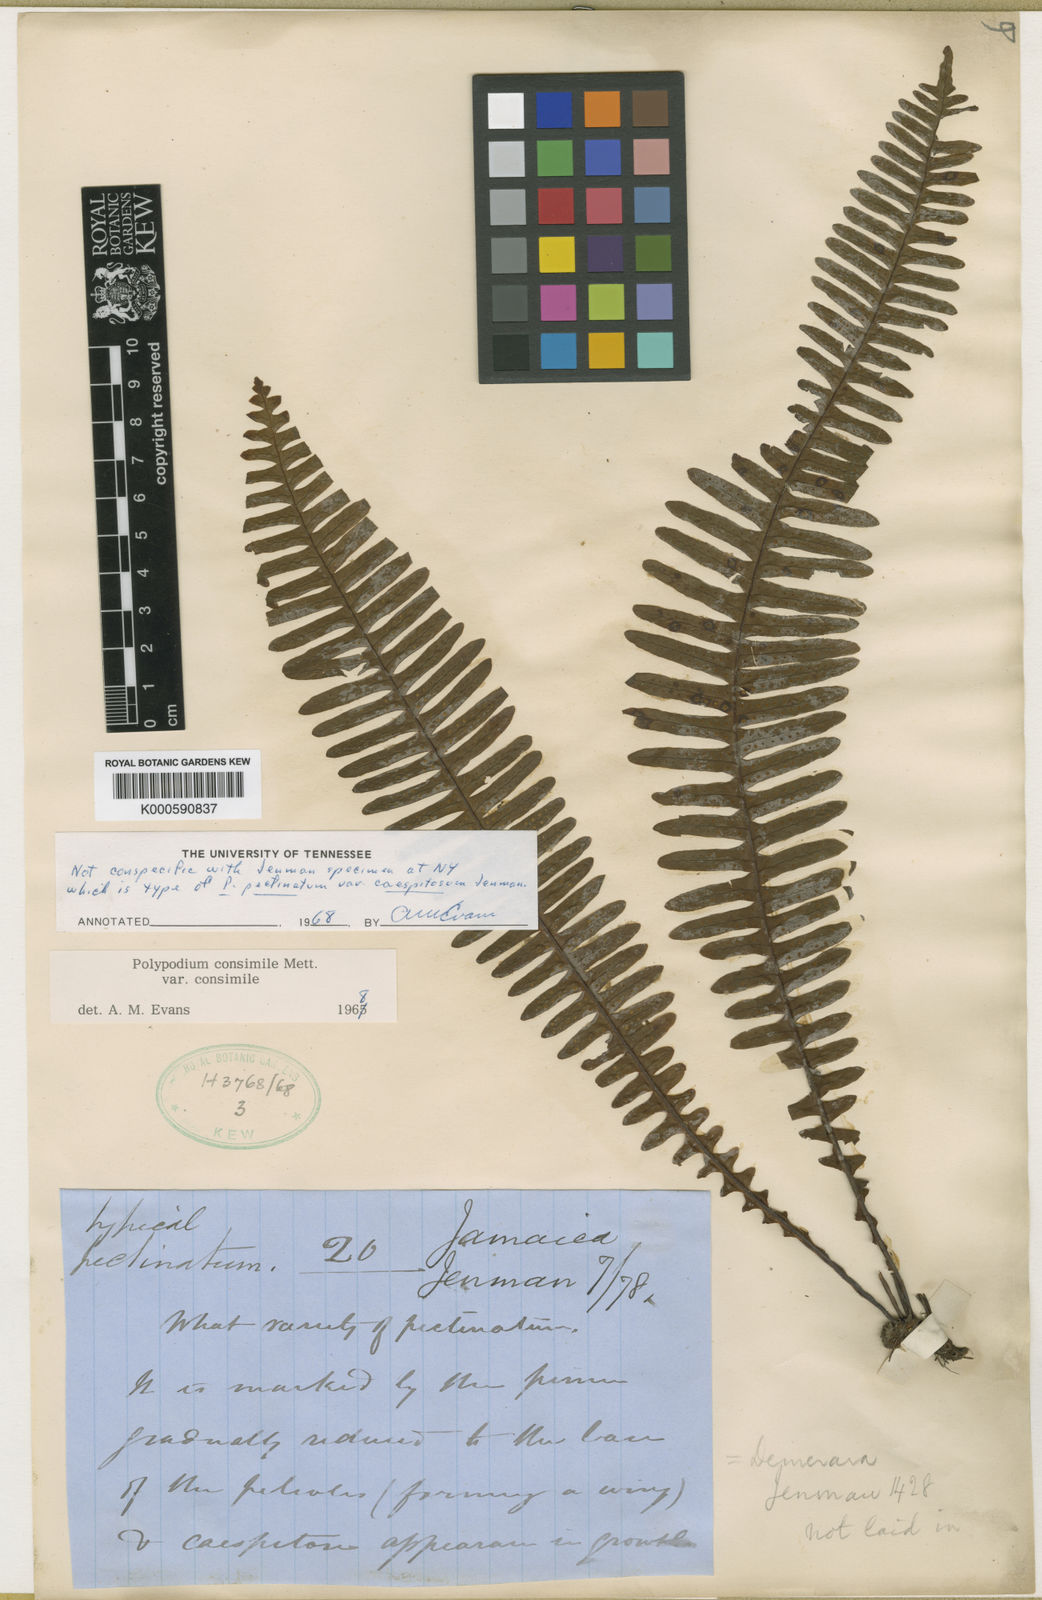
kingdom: Plantae
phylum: Tracheophyta
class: Polypodiopsida
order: Polypodiales
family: Polypodiaceae
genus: Pecluma
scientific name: Pecluma pectinata
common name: Msasa fern
